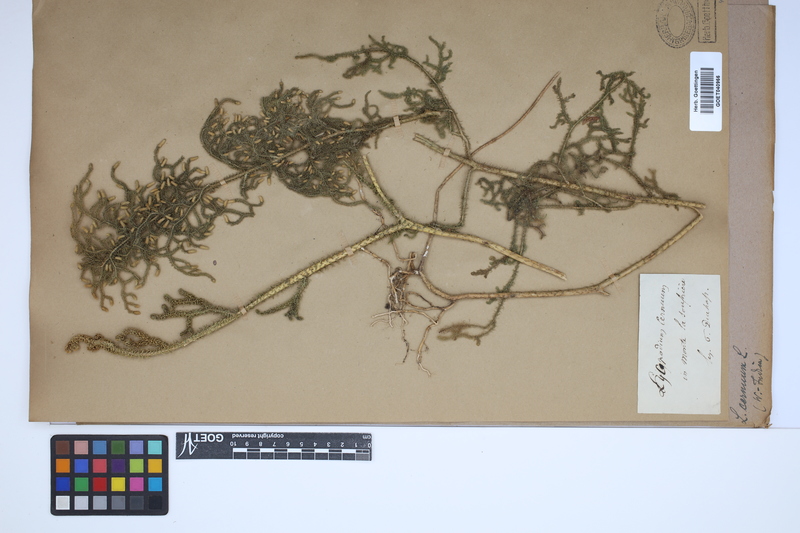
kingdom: Plantae
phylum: Tracheophyta
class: Lycopodiopsida
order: Lycopodiales
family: Lycopodiaceae
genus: Palhinhaea
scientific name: Palhinhaea cernua
